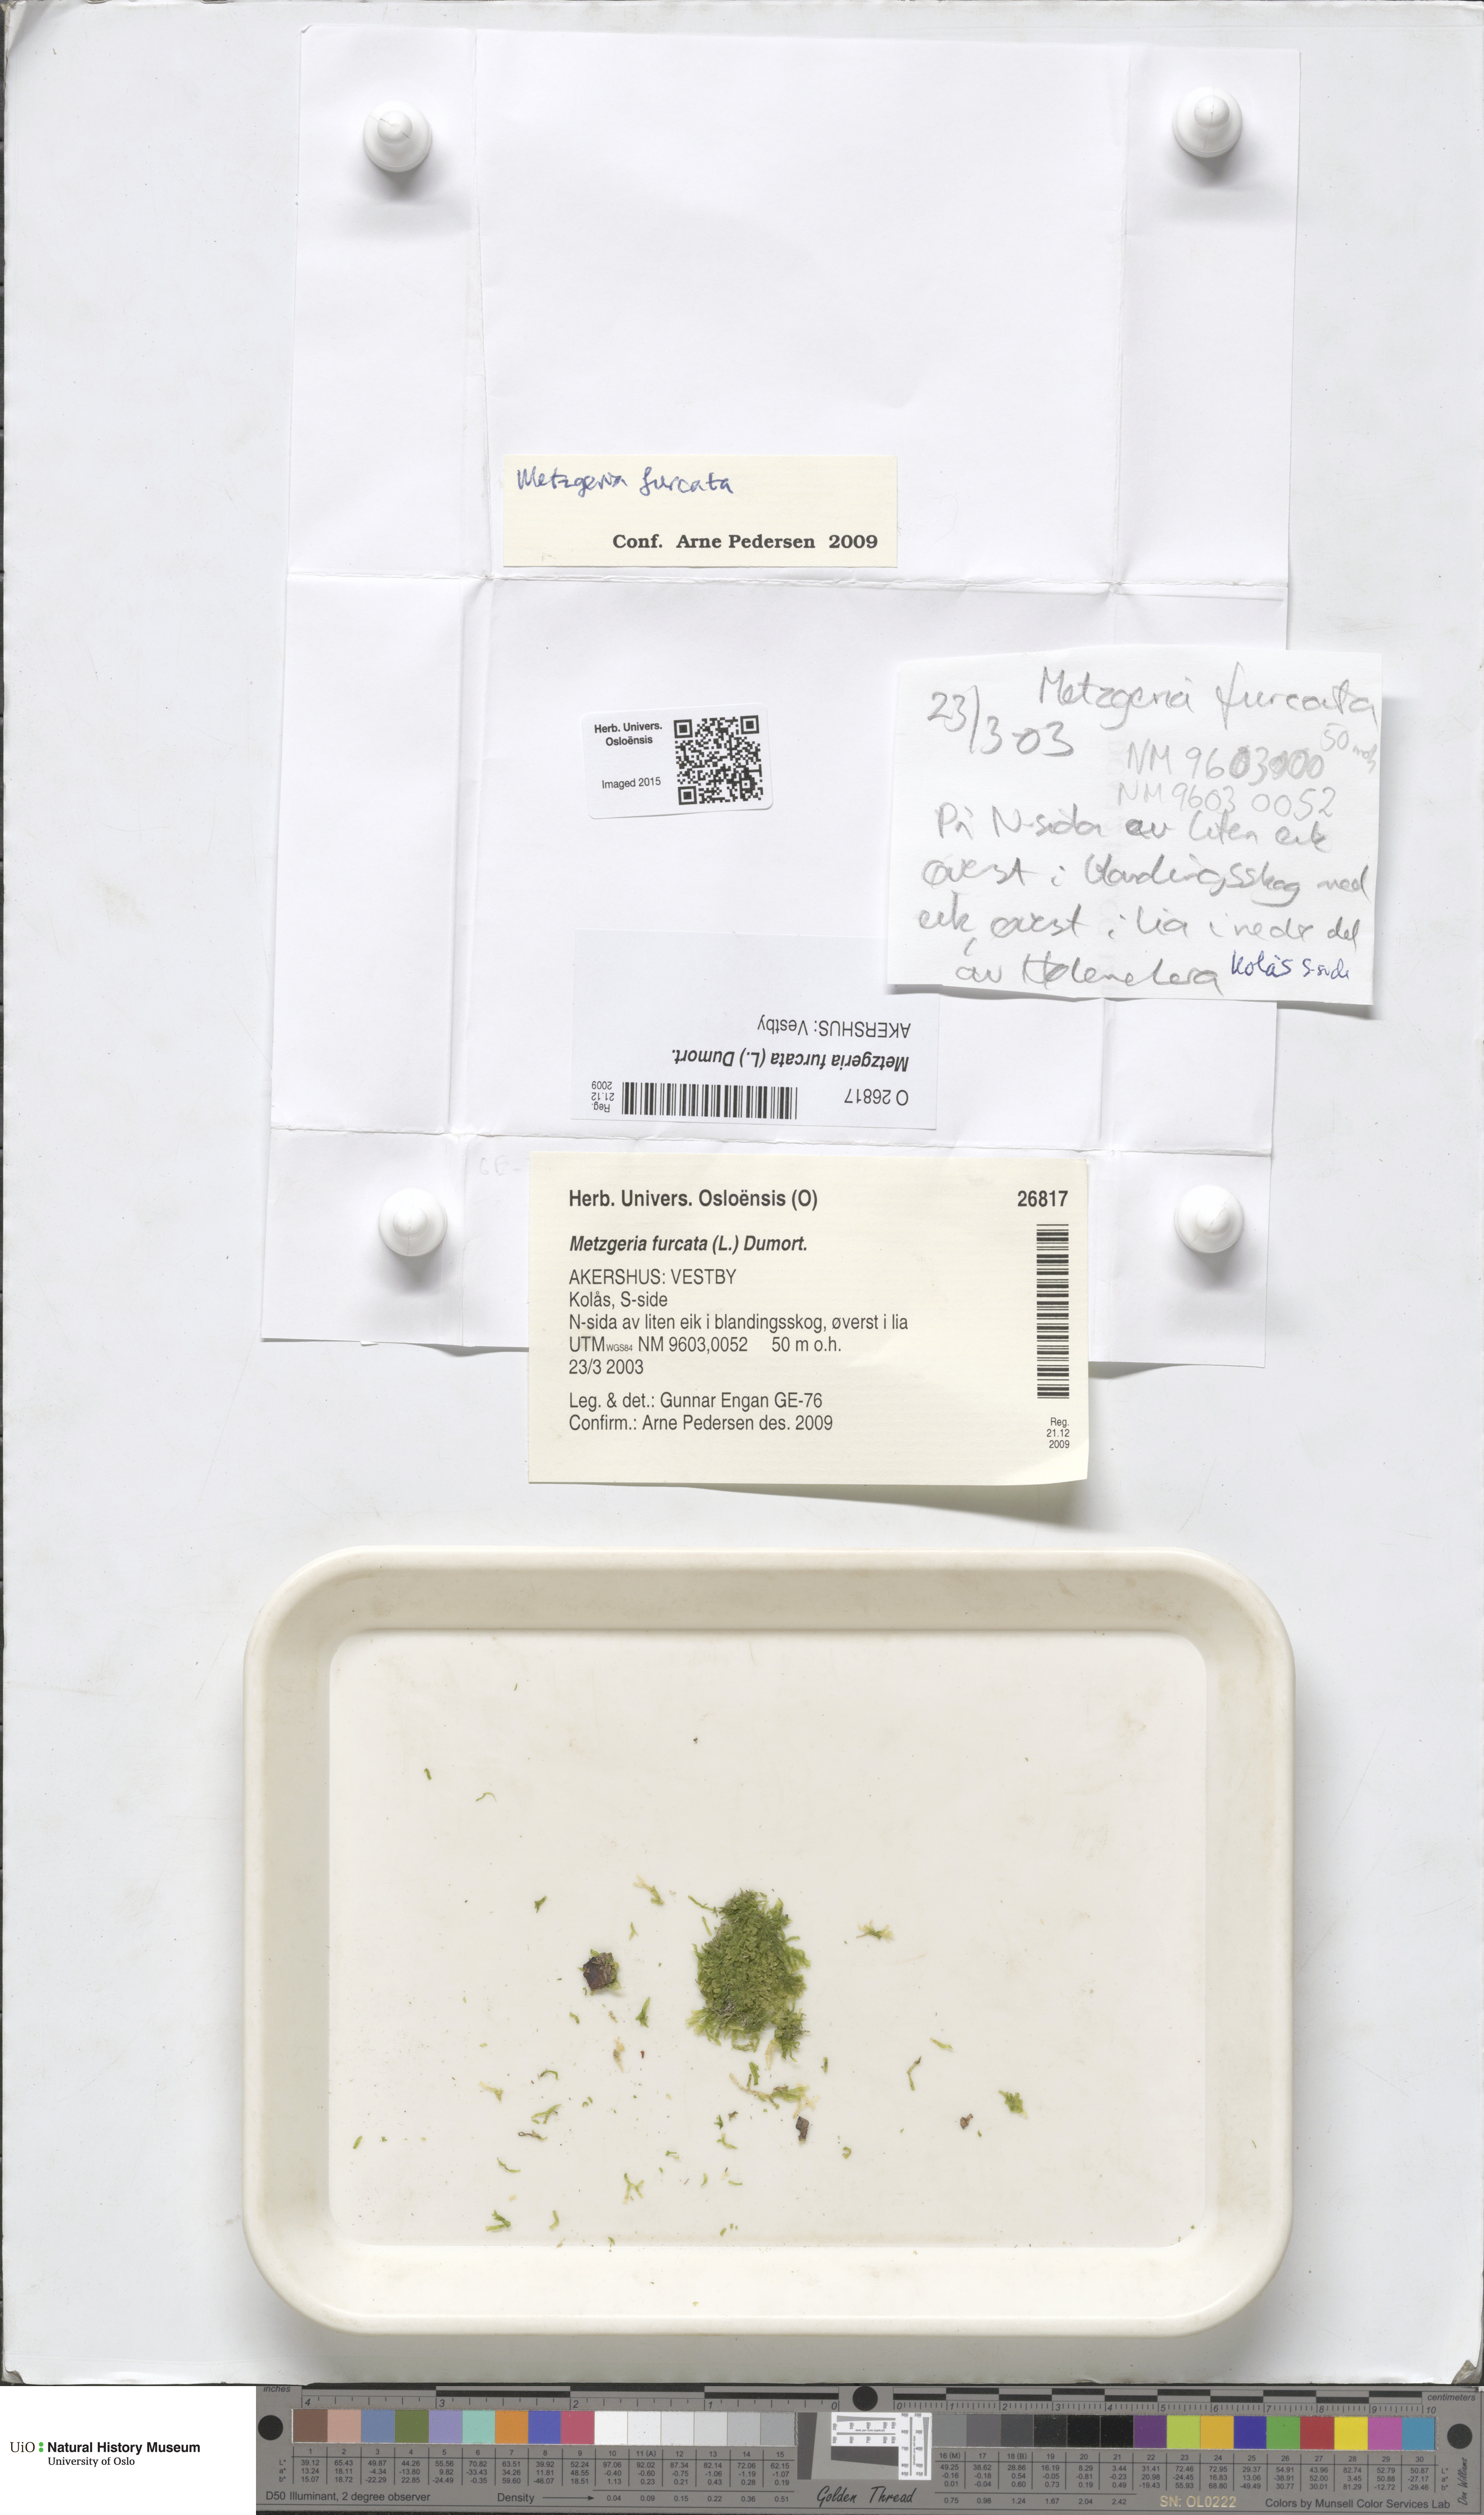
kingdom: Plantae
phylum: Marchantiophyta
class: Jungermanniopsida
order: Metzgeriales
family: Metzgeriaceae
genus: Metzgeria
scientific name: Metzgeria furcata
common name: Forked veilwort
